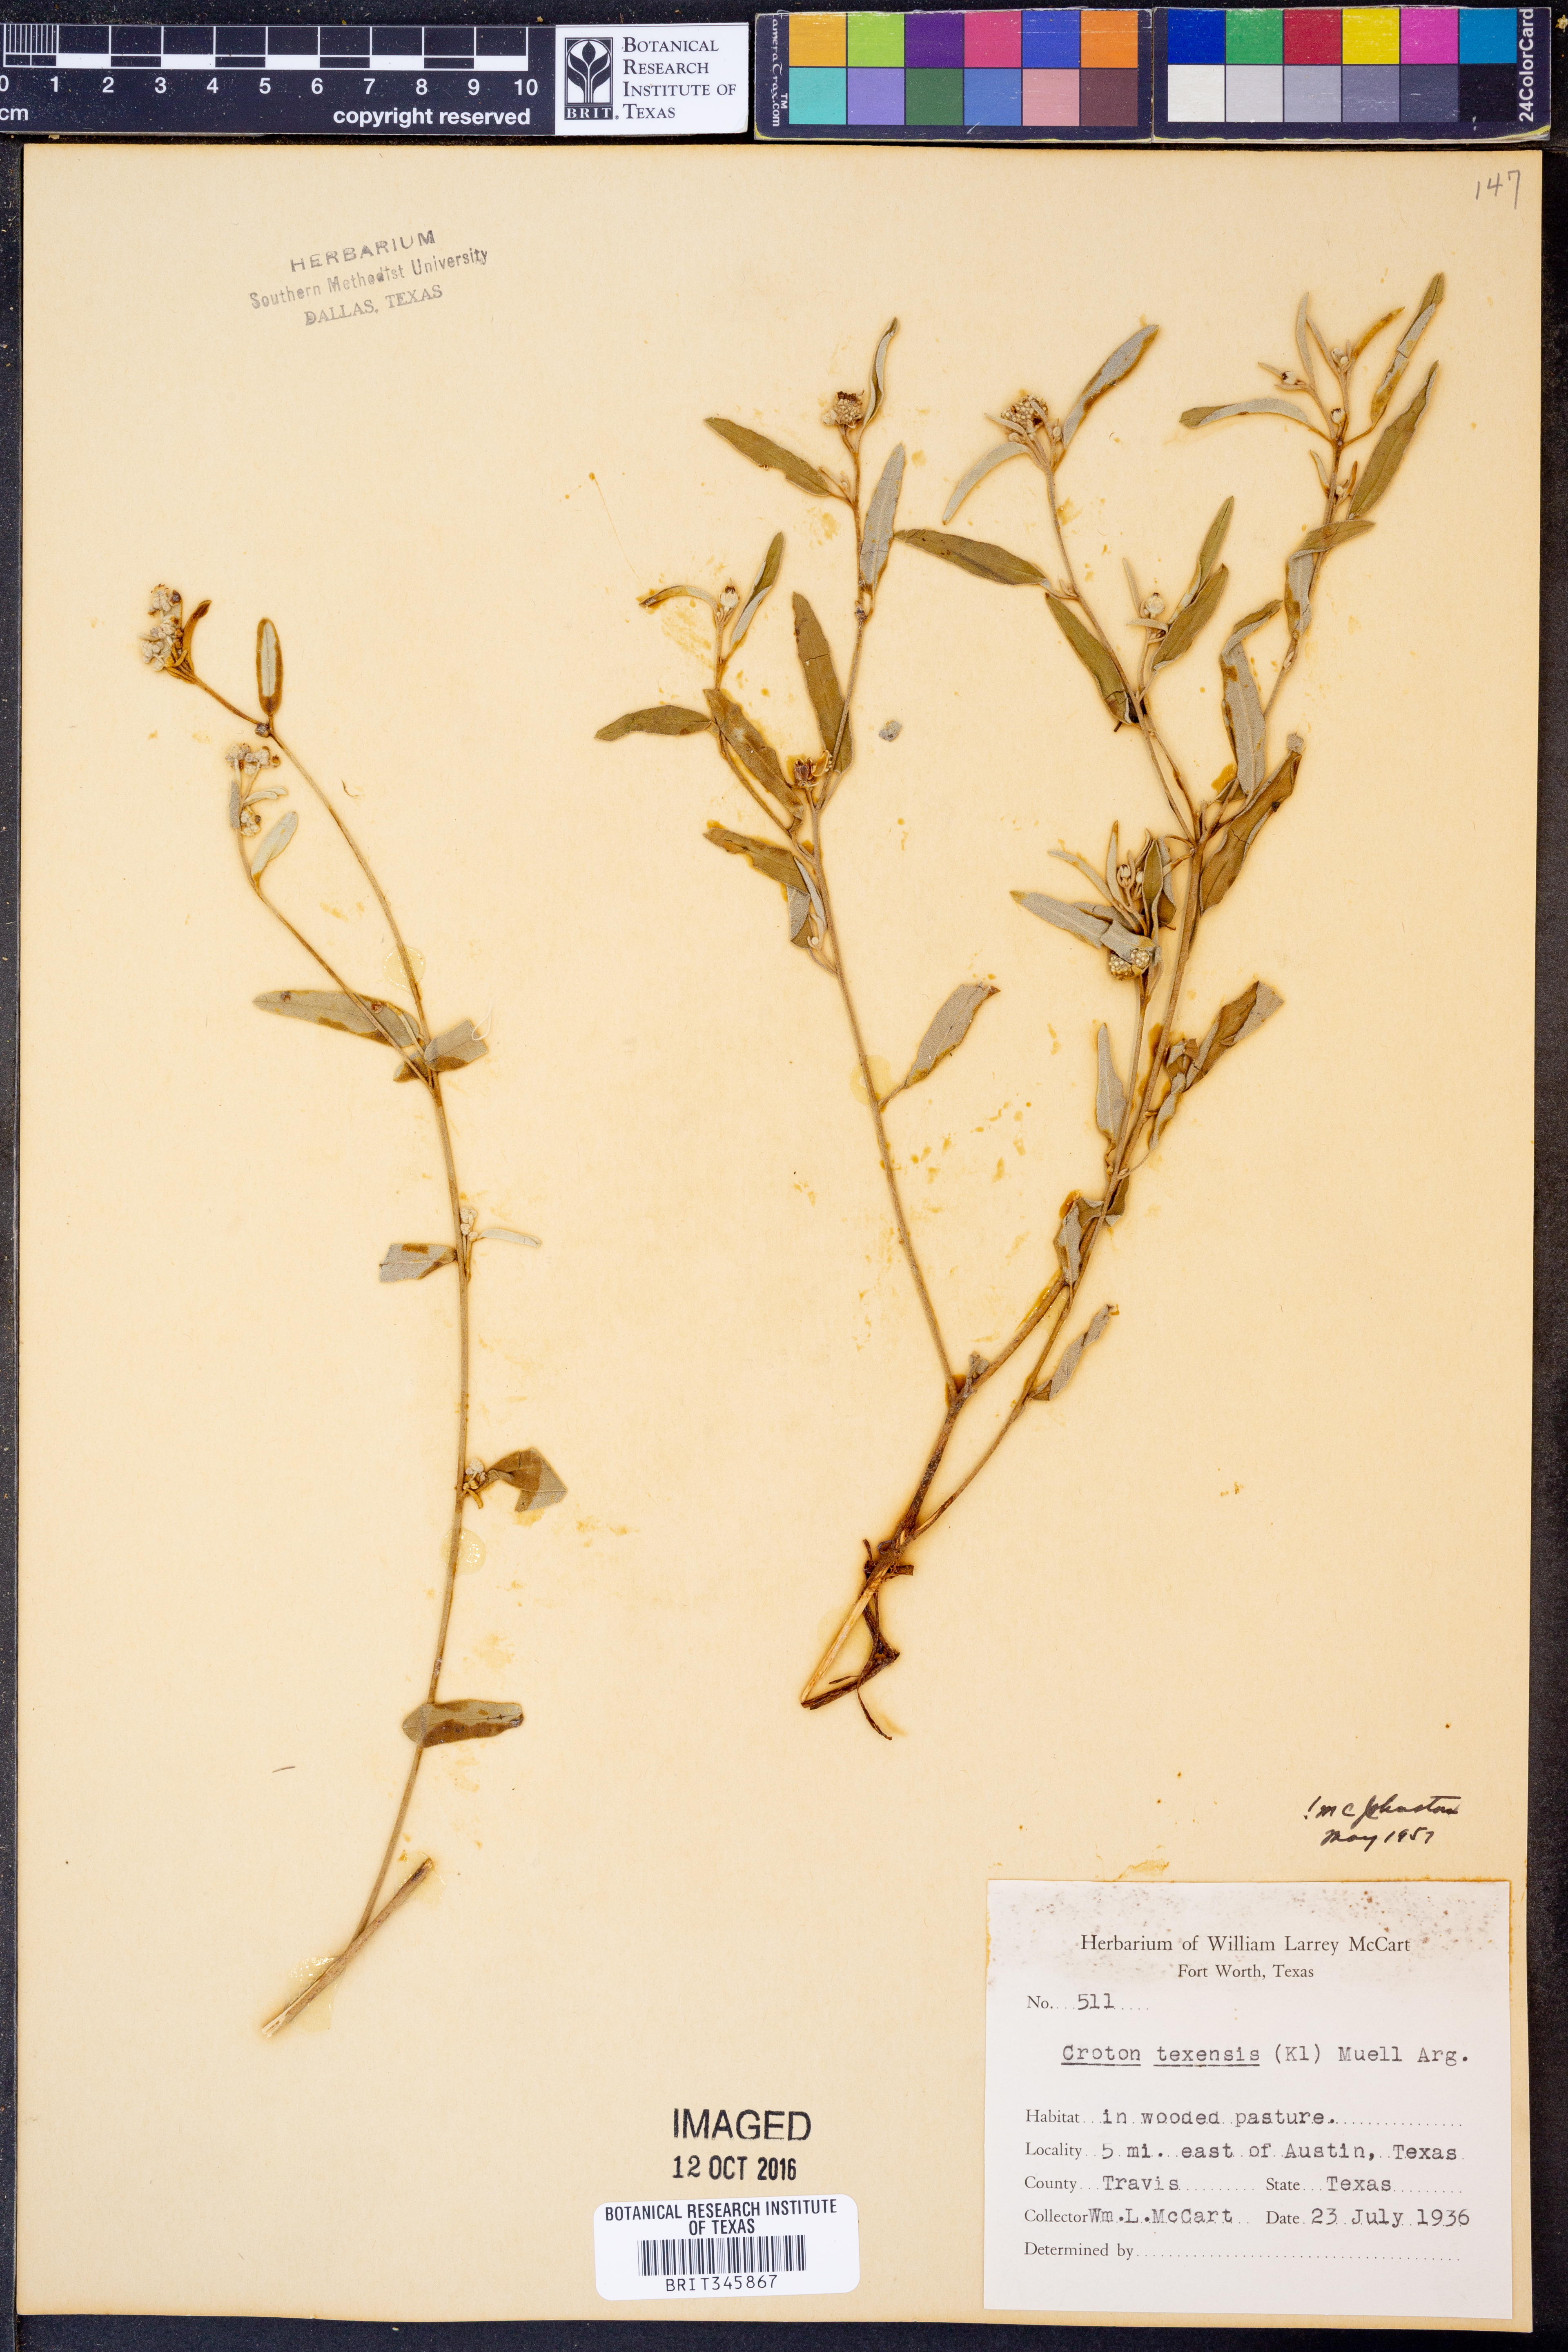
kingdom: Plantae
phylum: Tracheophyta
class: Magnoliopsida
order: Malpighiales
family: Euphorbiaceae
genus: Croton
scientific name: Croton texensis
